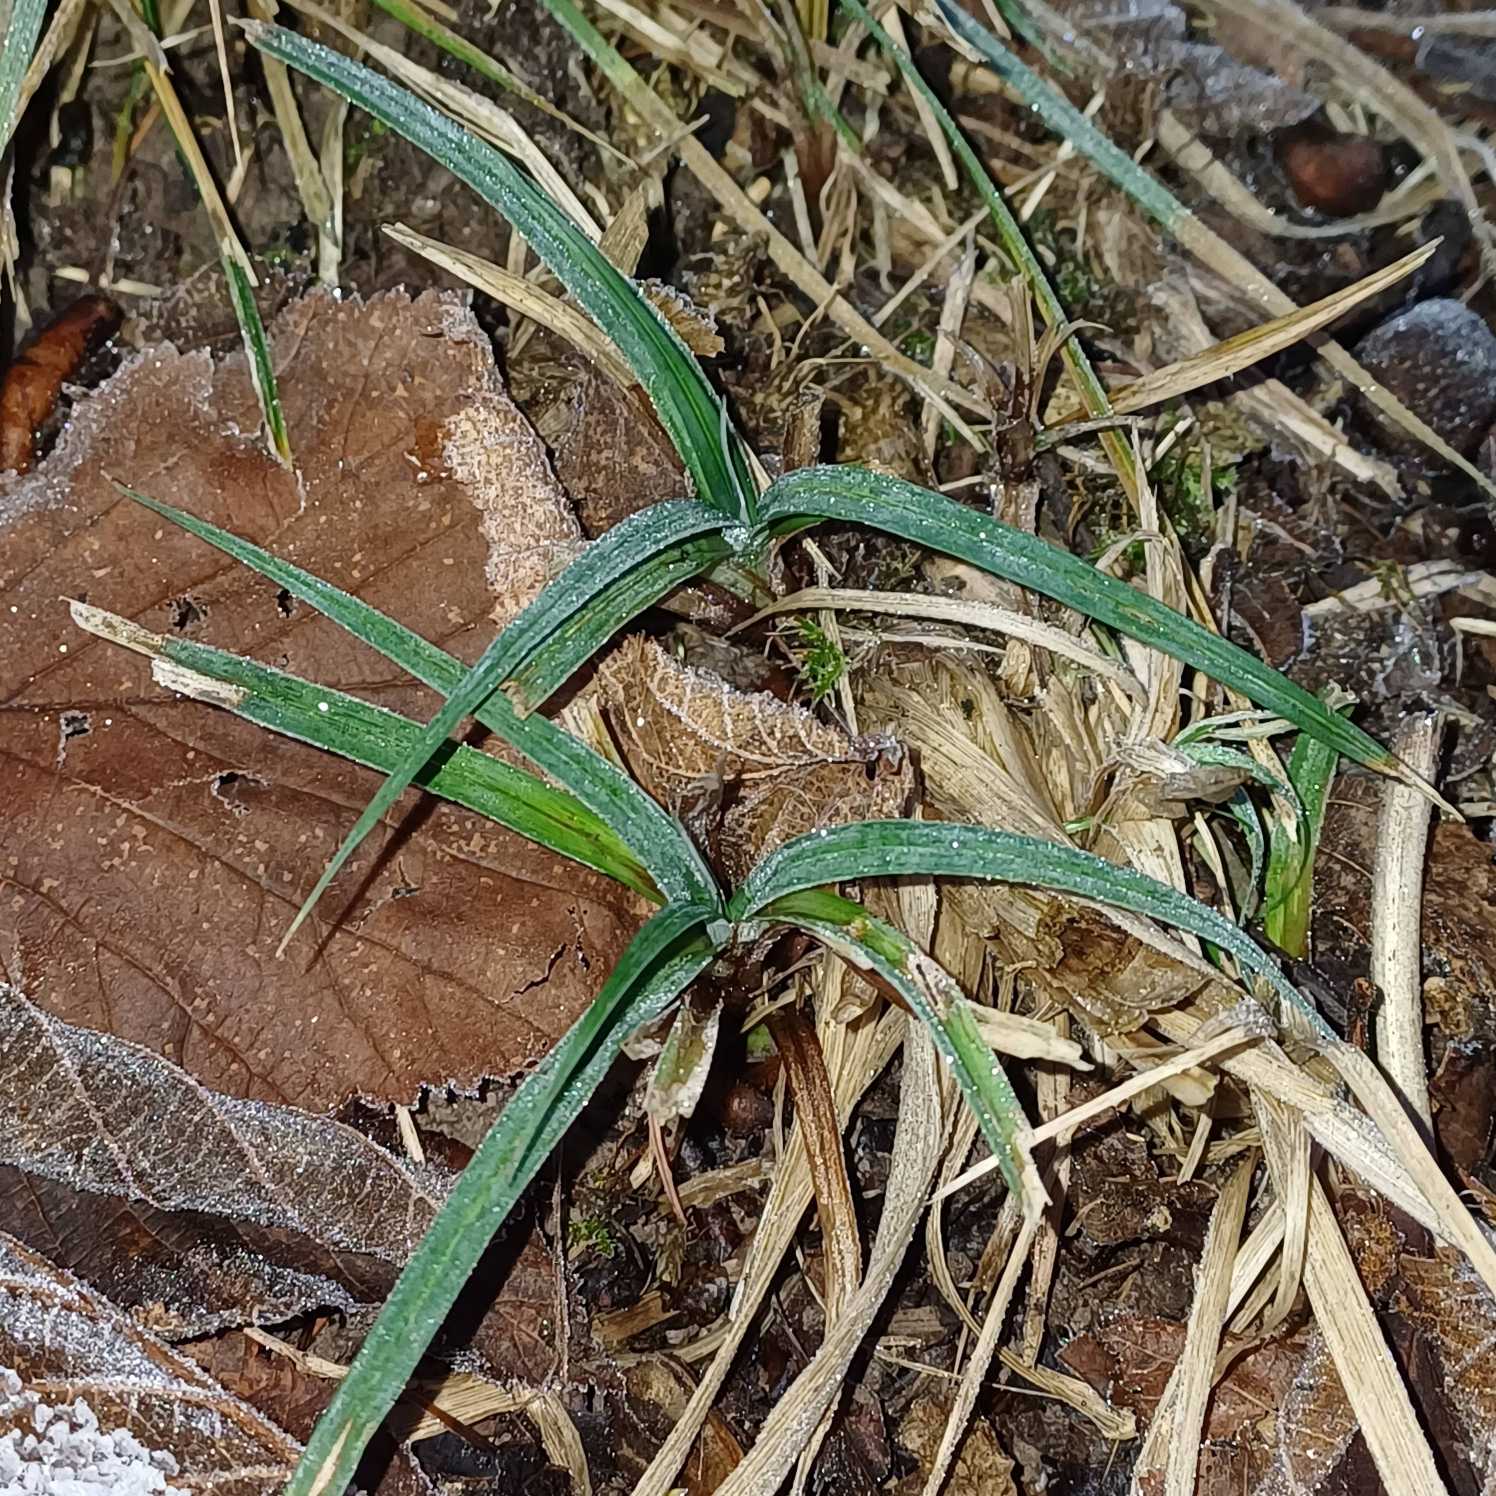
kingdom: Plantae
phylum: Tracheophyta
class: Liliopsida
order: Poales
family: Cyperaceae
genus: Carex
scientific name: Carex flacca
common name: Blågrøn star
